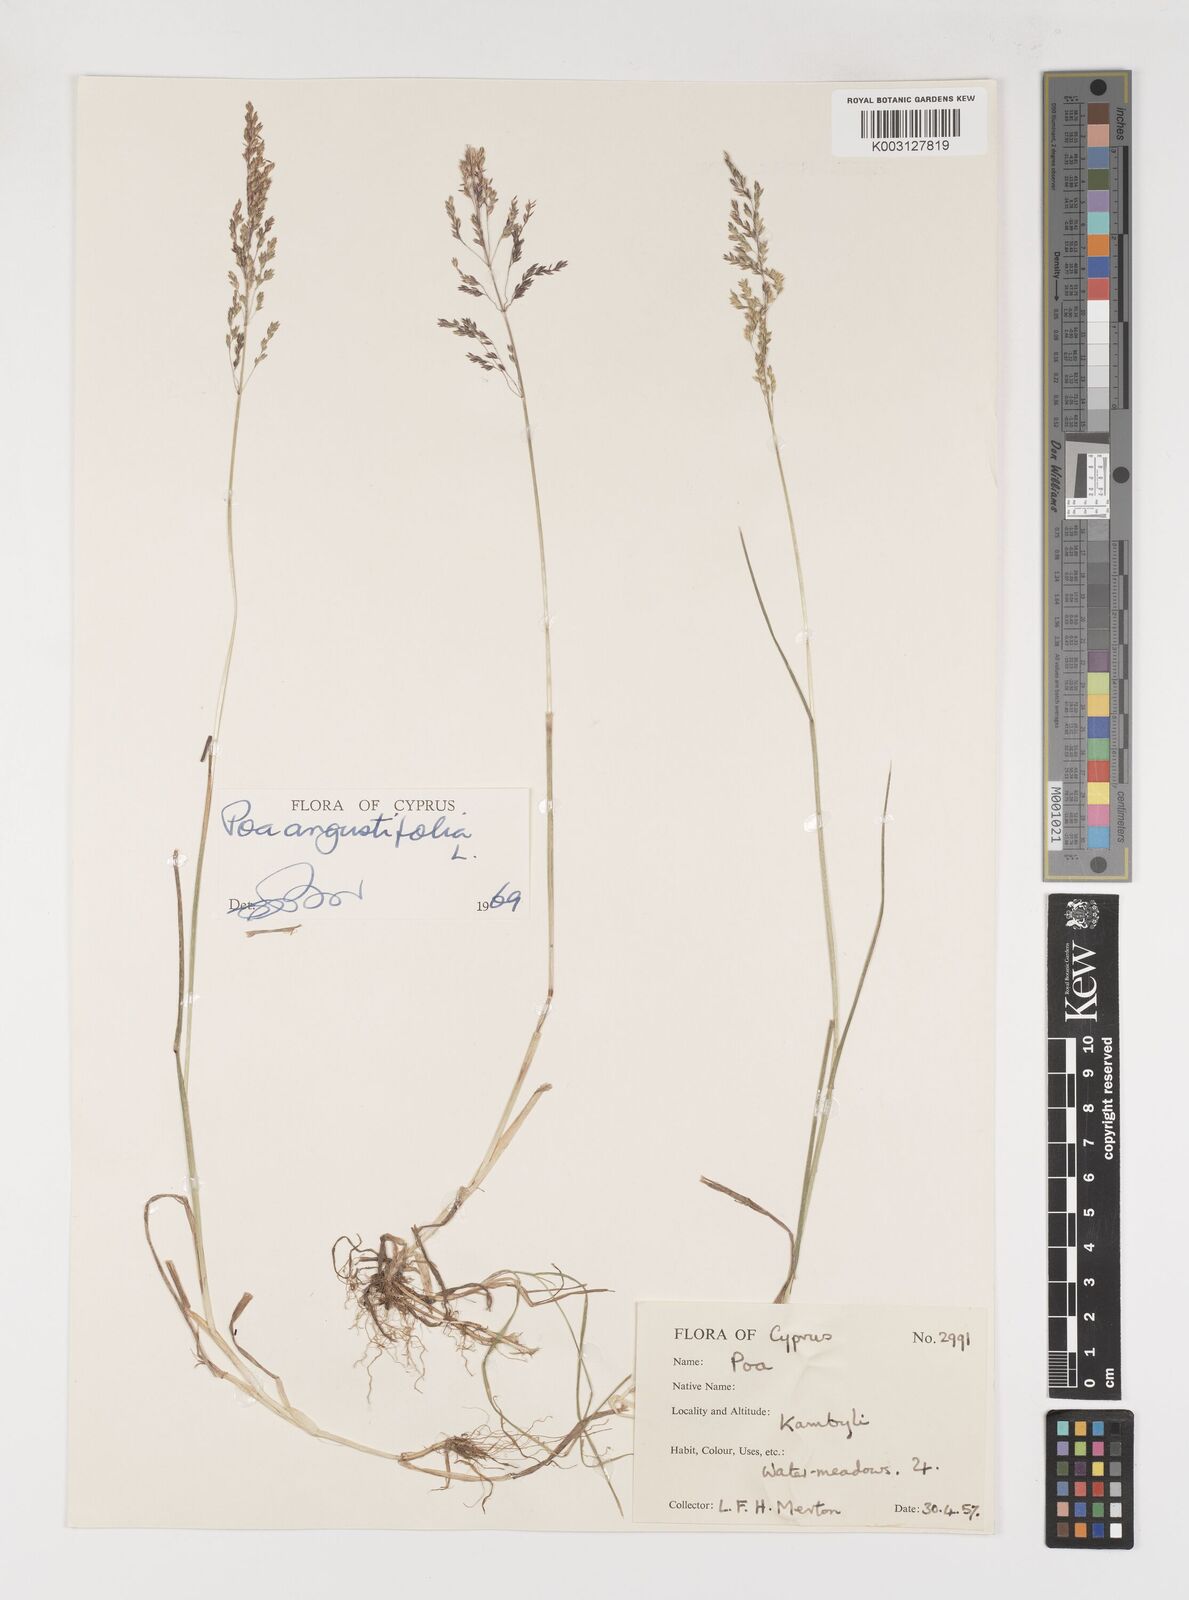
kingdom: Plantae
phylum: Tracheophyta
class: Liliopsida
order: Poales
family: Poaceae
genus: Poa
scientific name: Poa angustifolia
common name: Narrow-leaved meadow-grass
